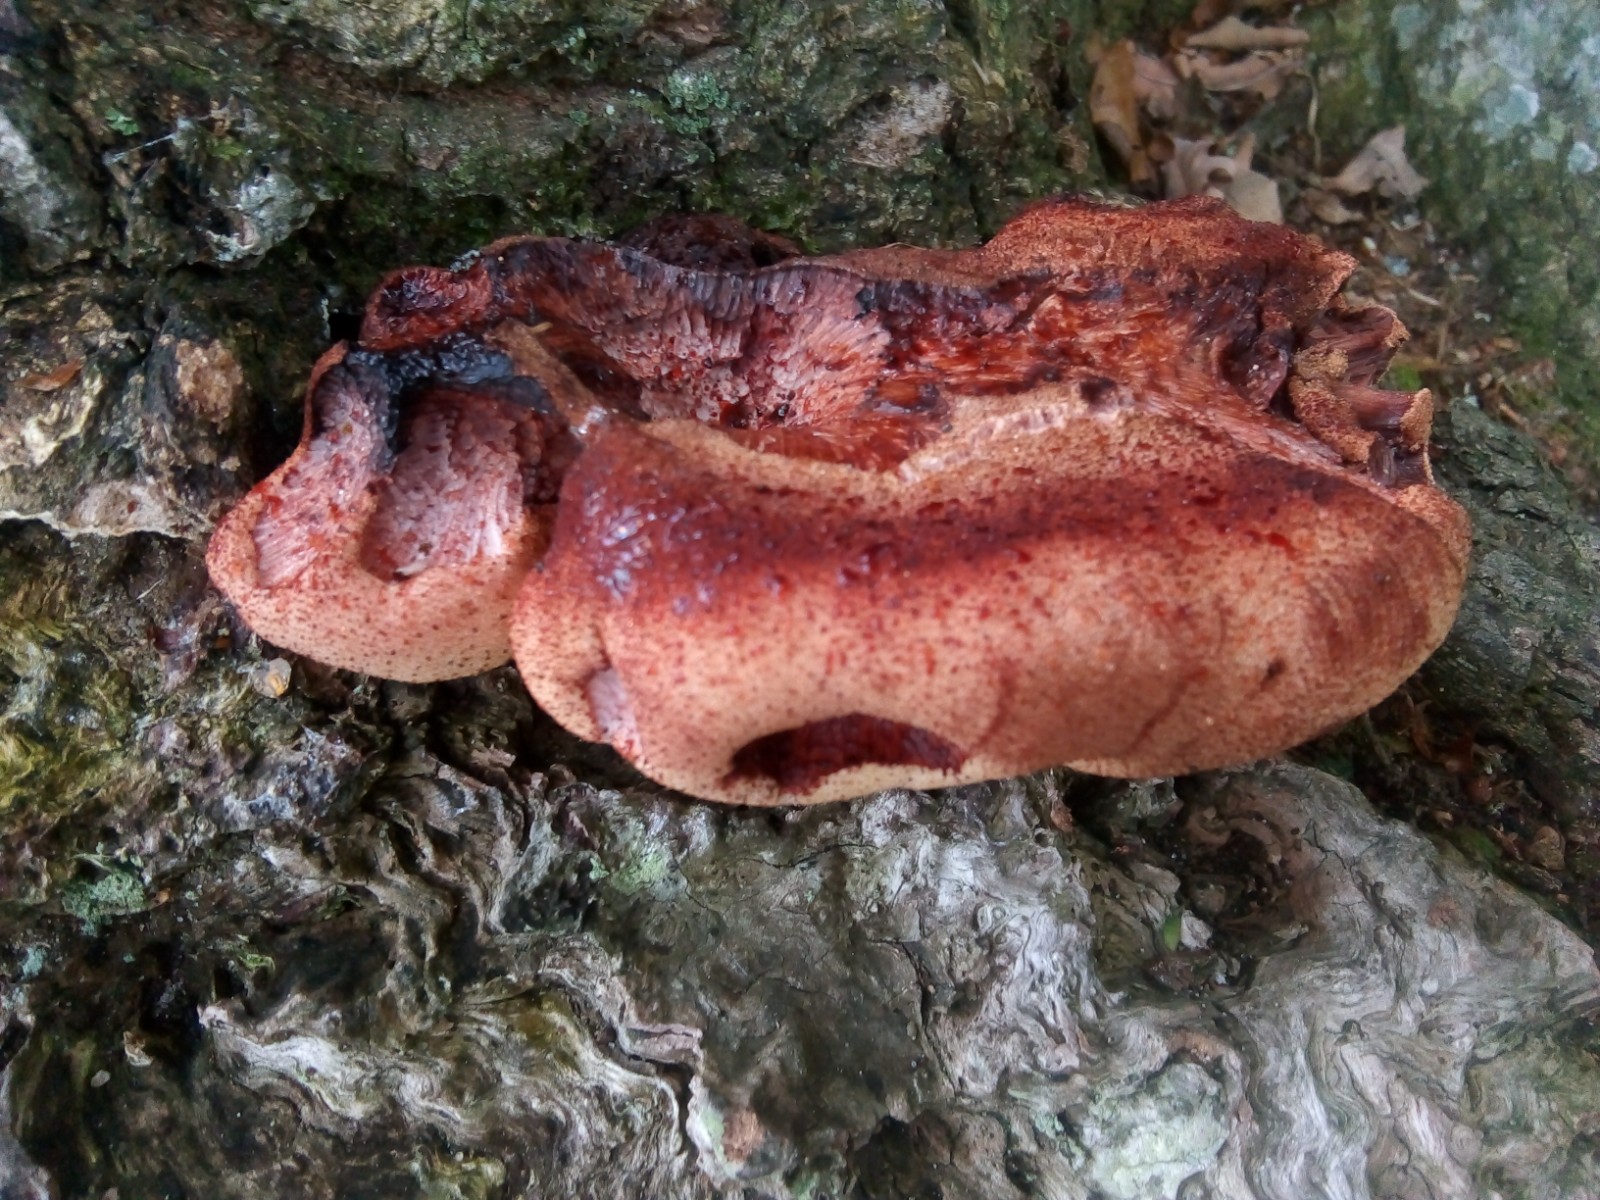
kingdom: Fungi
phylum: Basidiomycota
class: Agaricomycetes
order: Agaricales
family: Fistulinaceae
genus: Fistulina
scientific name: Fistulina hepatica
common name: oksetunge
